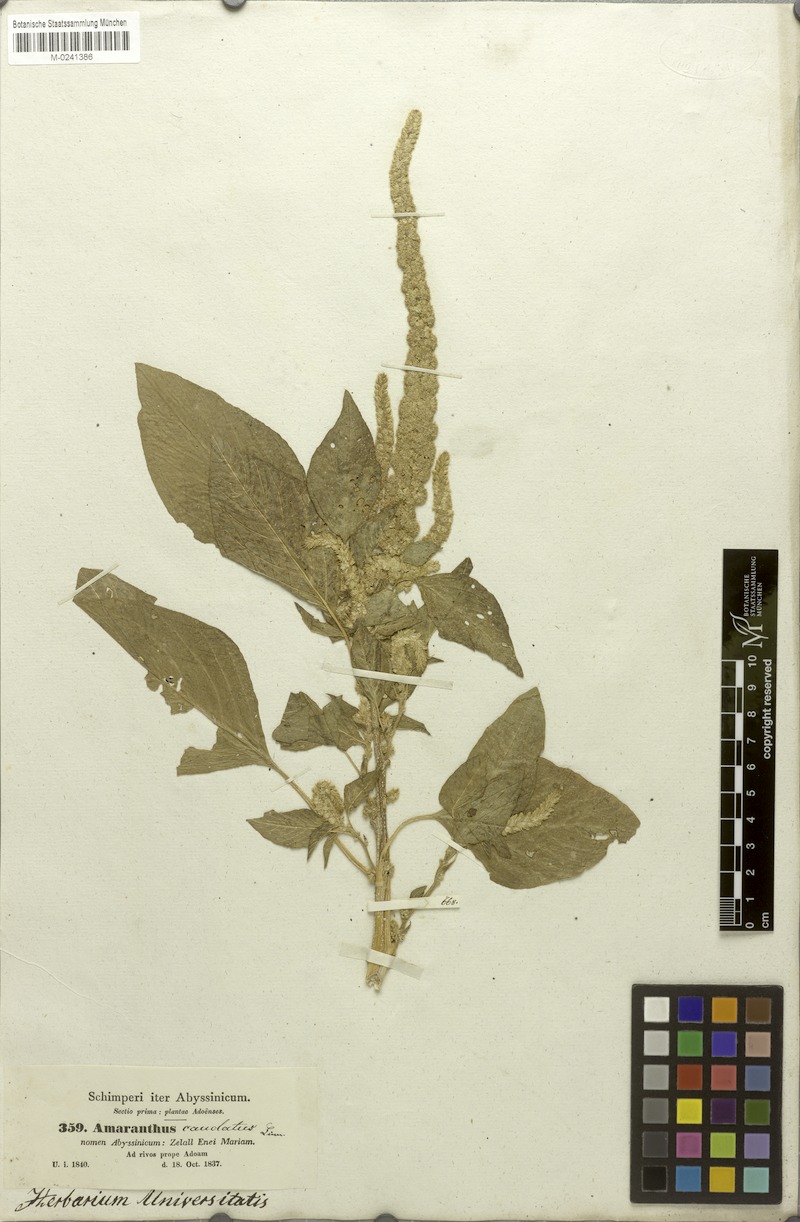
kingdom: Plantae
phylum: Tracheophyta
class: Magnoliopsida
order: Caryophyllales
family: Amaranthaceae
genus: Amaranthus
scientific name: Amaranthus caudatus
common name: Love-lies-bleeding
